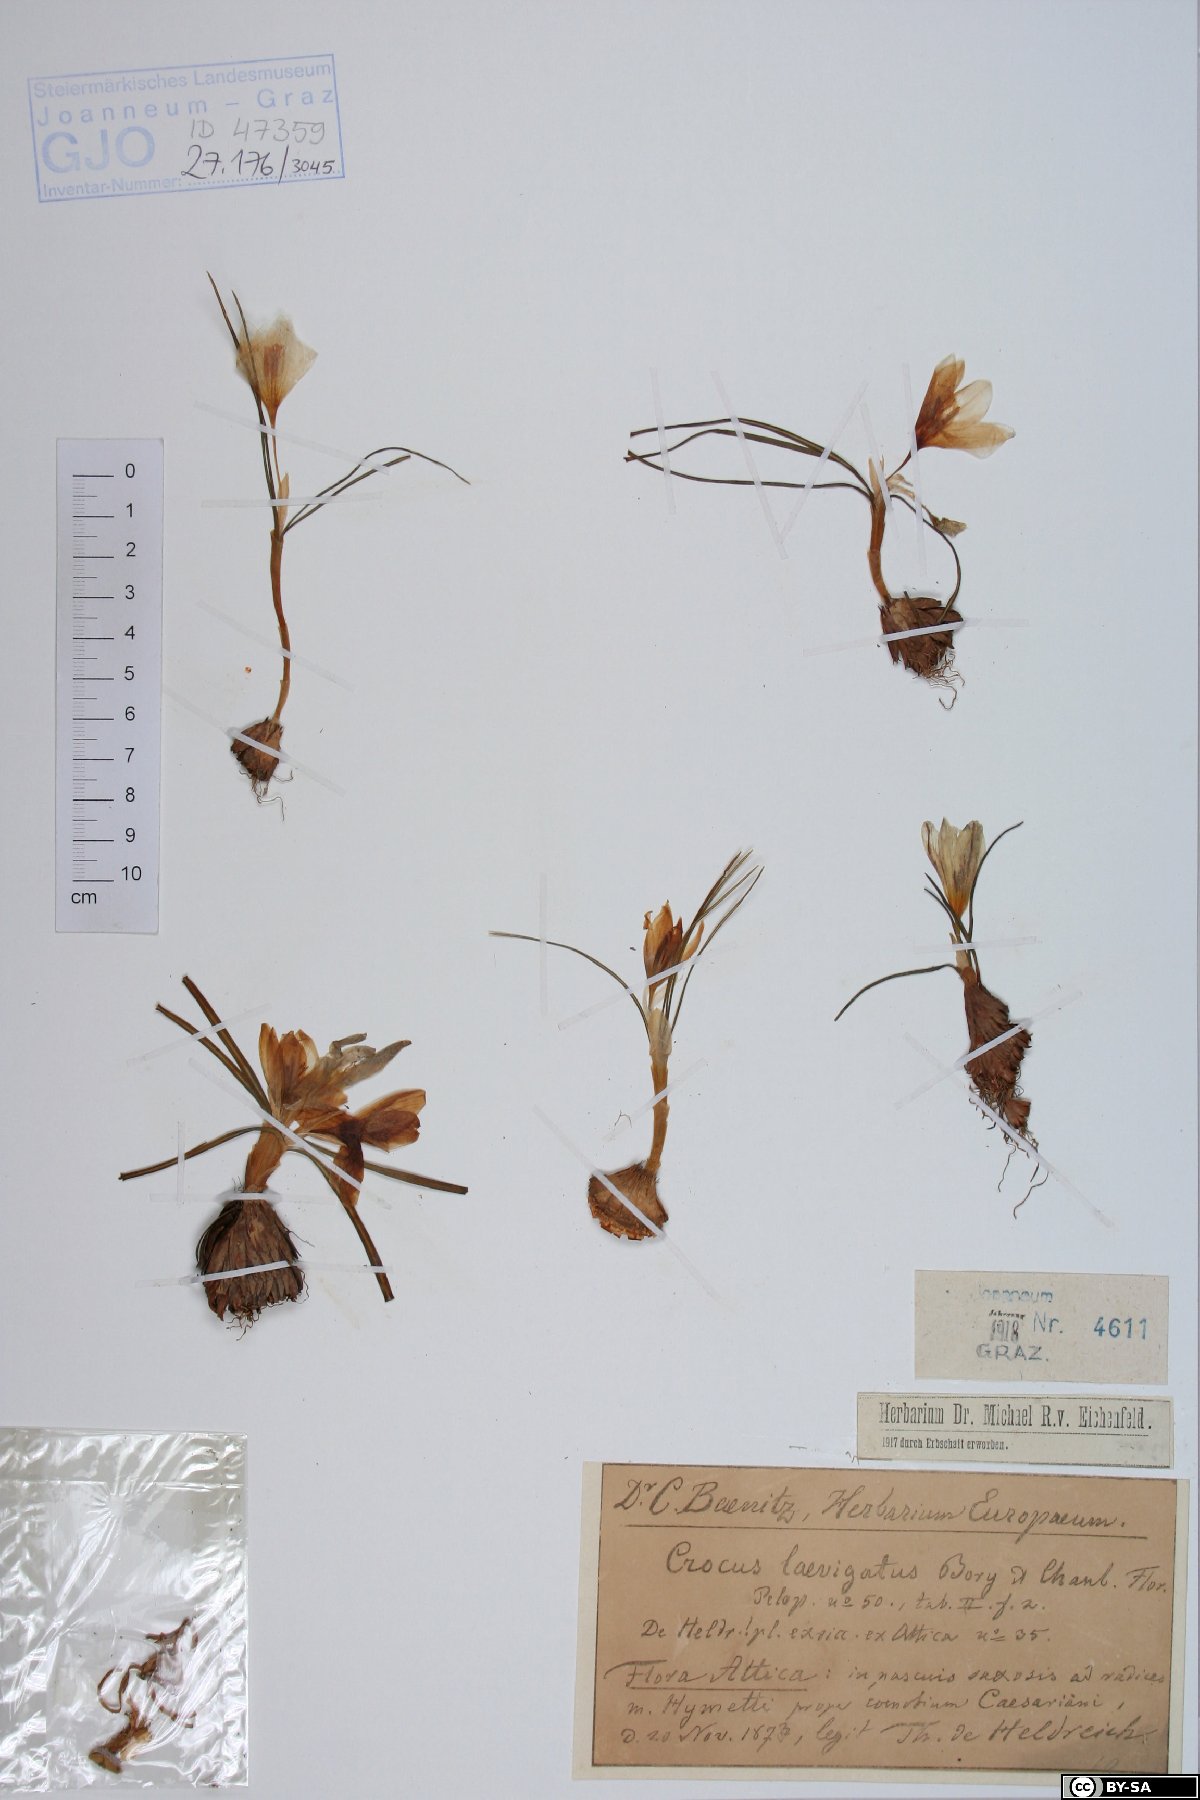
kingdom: Plantae
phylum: Tracheophyta
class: Liliopsida
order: Asparagales
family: Iridaceae
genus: Crocus
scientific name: Crocus laevigatus
